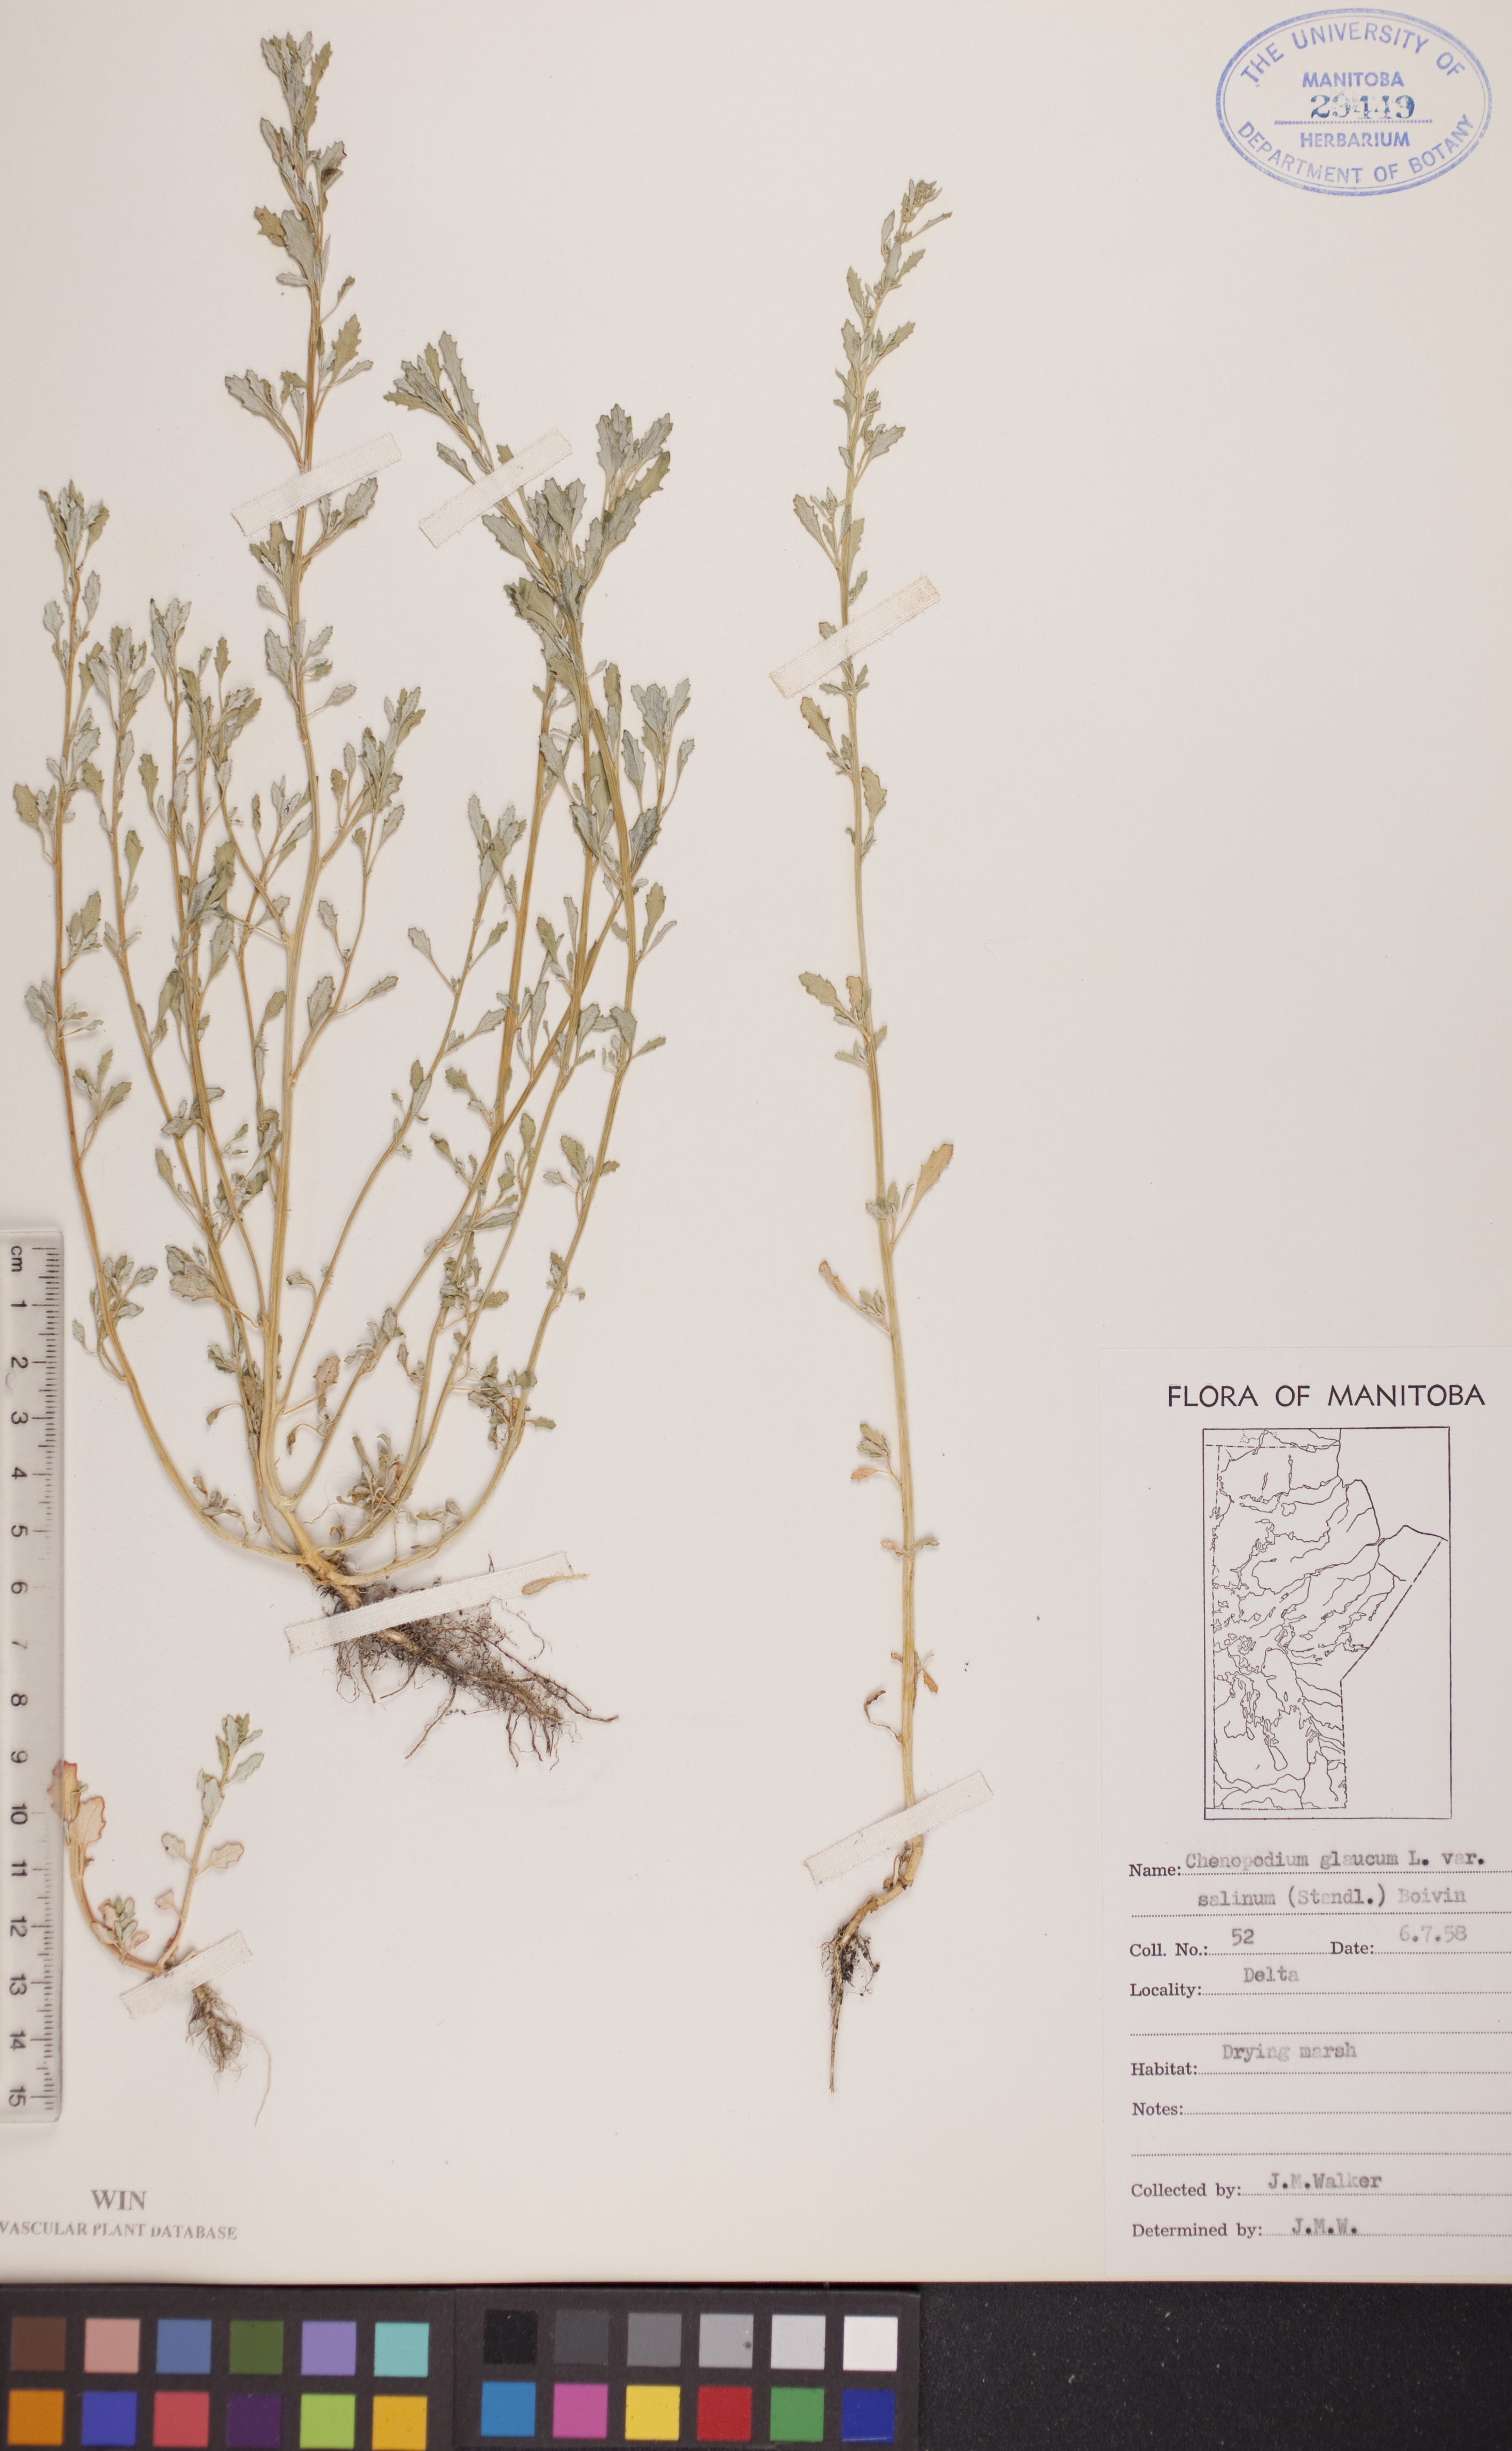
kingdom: Plantae
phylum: Tracheophyta
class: Magnoliopsida
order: Caryophyllales
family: Amaranthaceae
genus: Oxybasis
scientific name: Oxybasis salina
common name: Rocky mountain goosefoot
